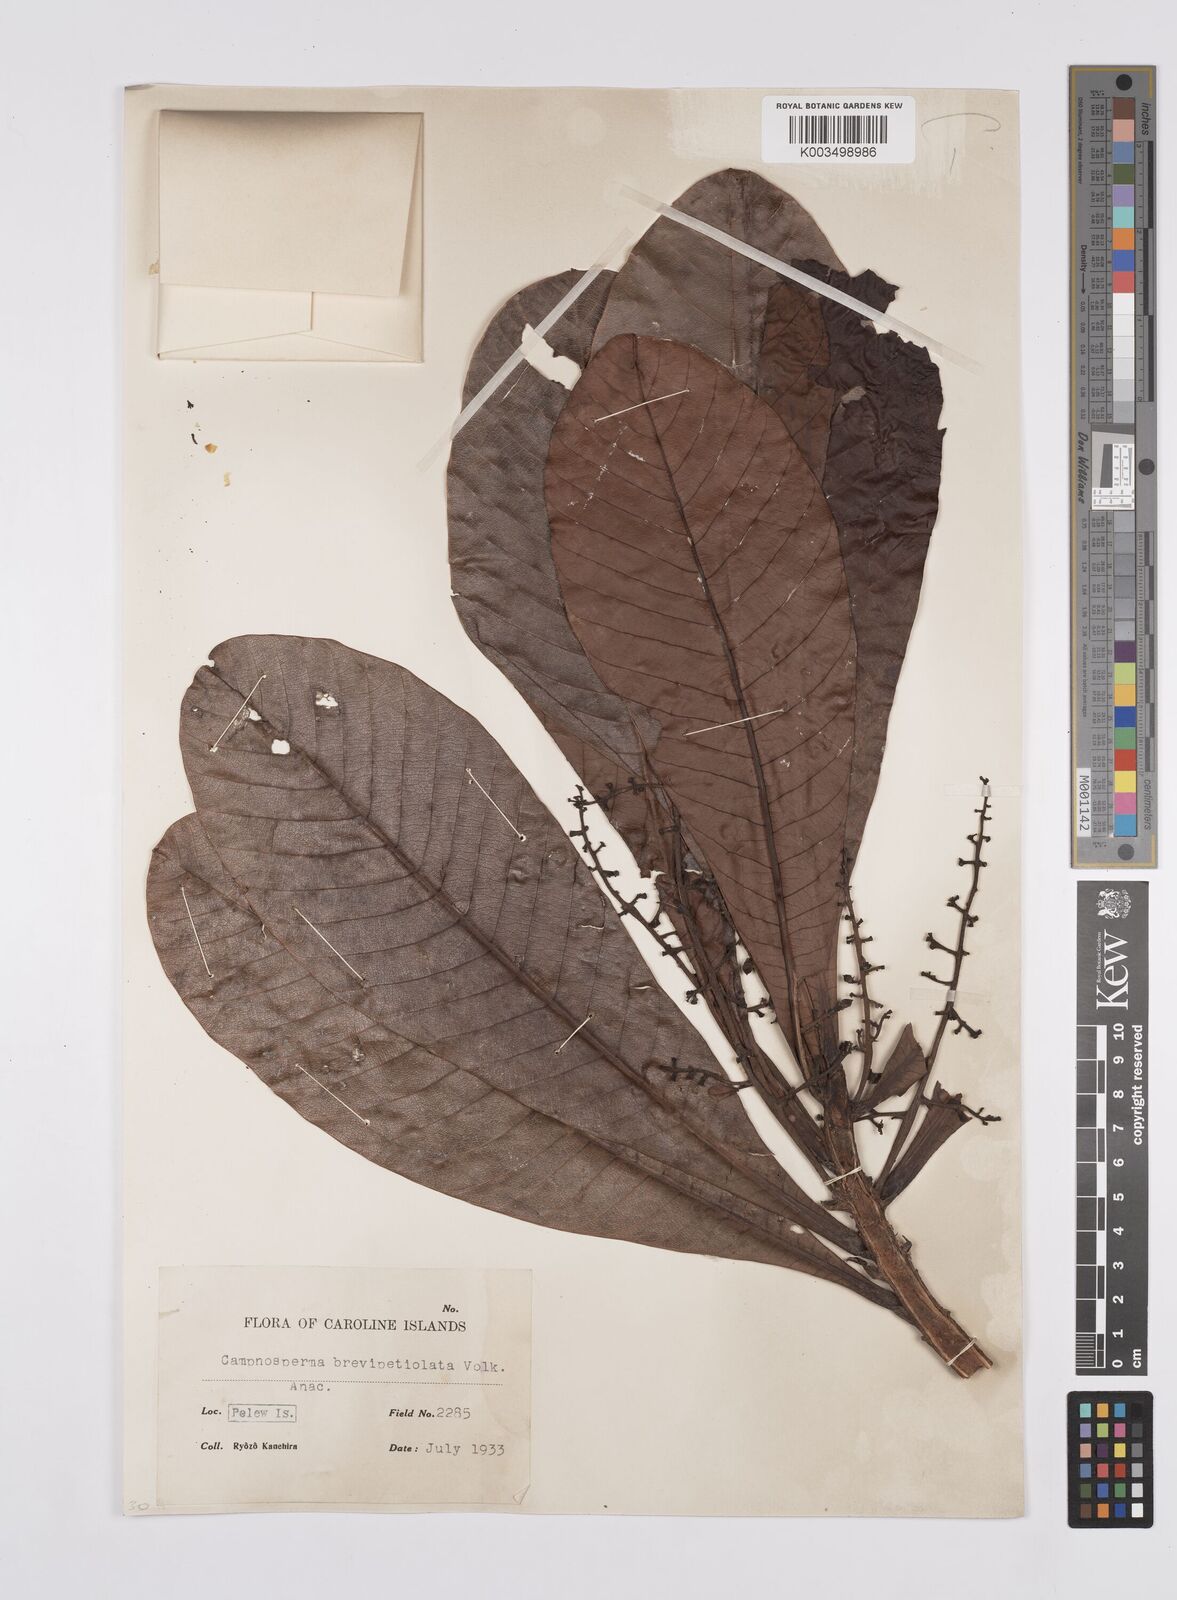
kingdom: Plantae
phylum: Tracheophyta
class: Magnoliopsida
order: Sapindales
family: Anacardiaceae
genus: Campnosperma
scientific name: Campnosperma brevipetiolatum
